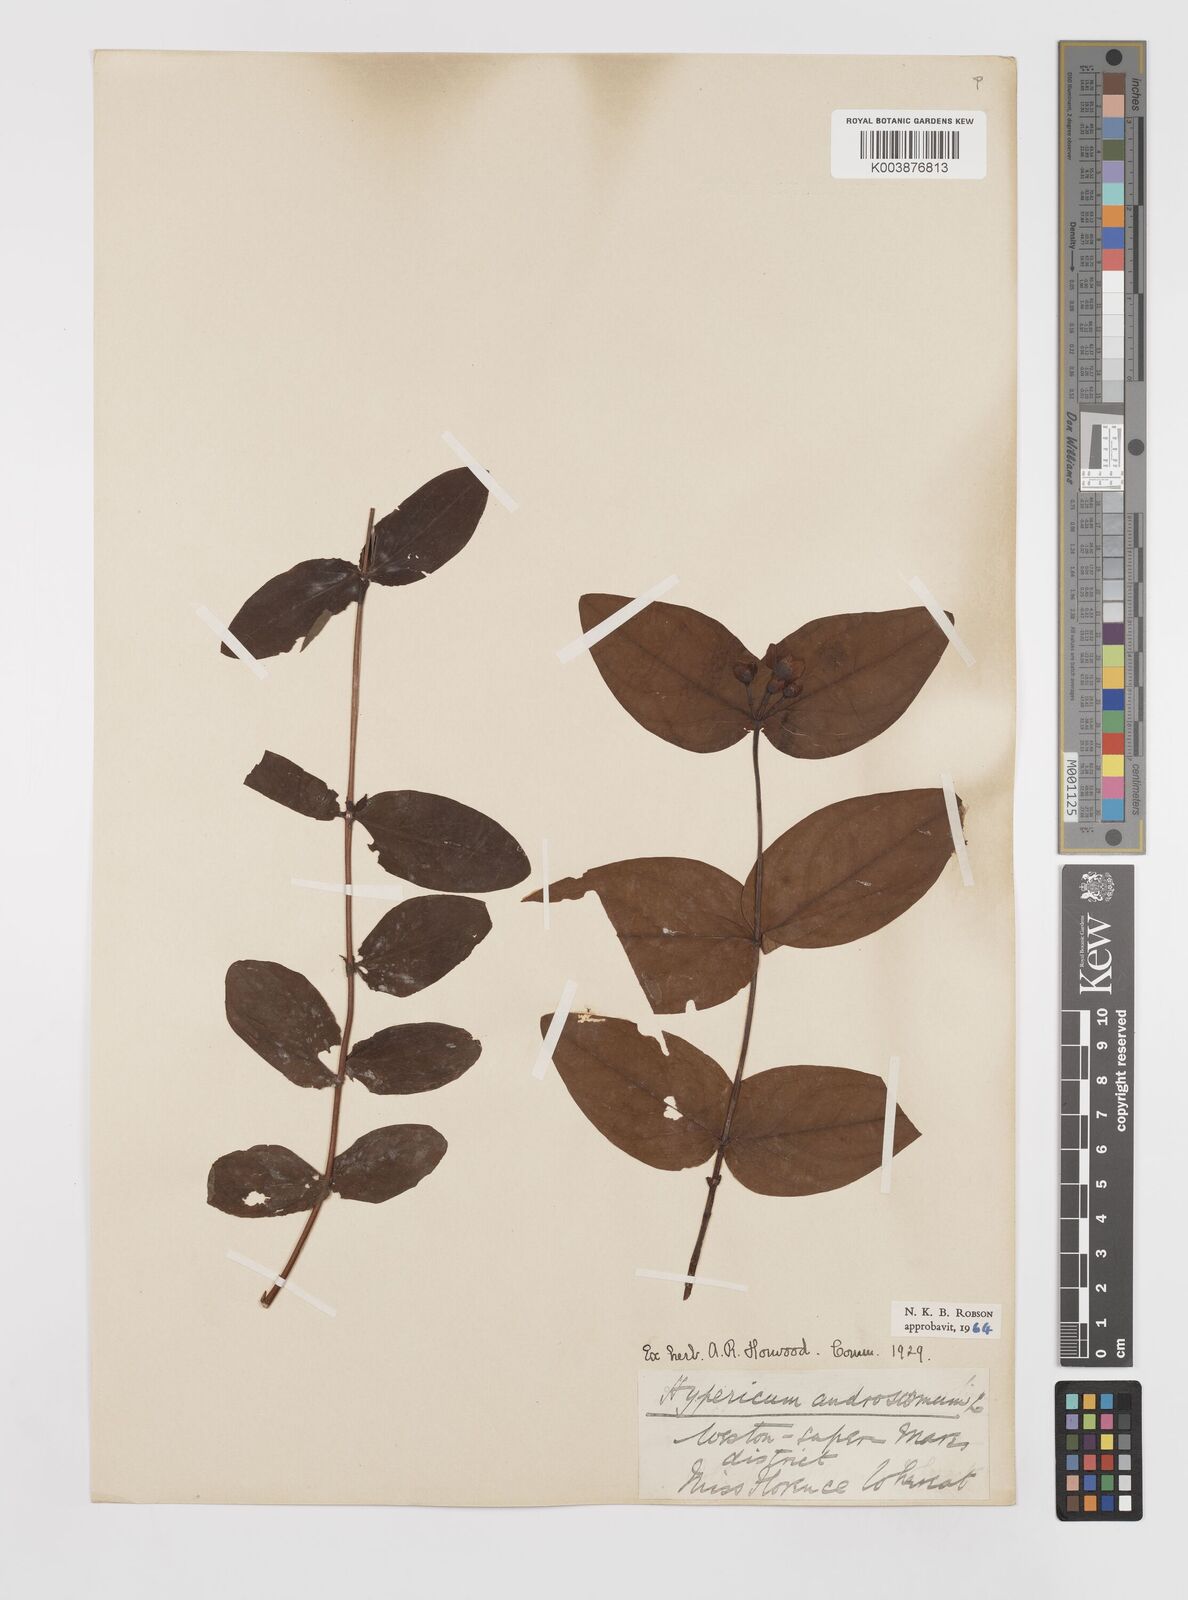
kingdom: Plantae
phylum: Tracheophyta
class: Magnoliopsida
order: Malpighiales
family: Hypericaceae
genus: Hypericum
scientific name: Hypericum androsaemum
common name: Sweet-amber
